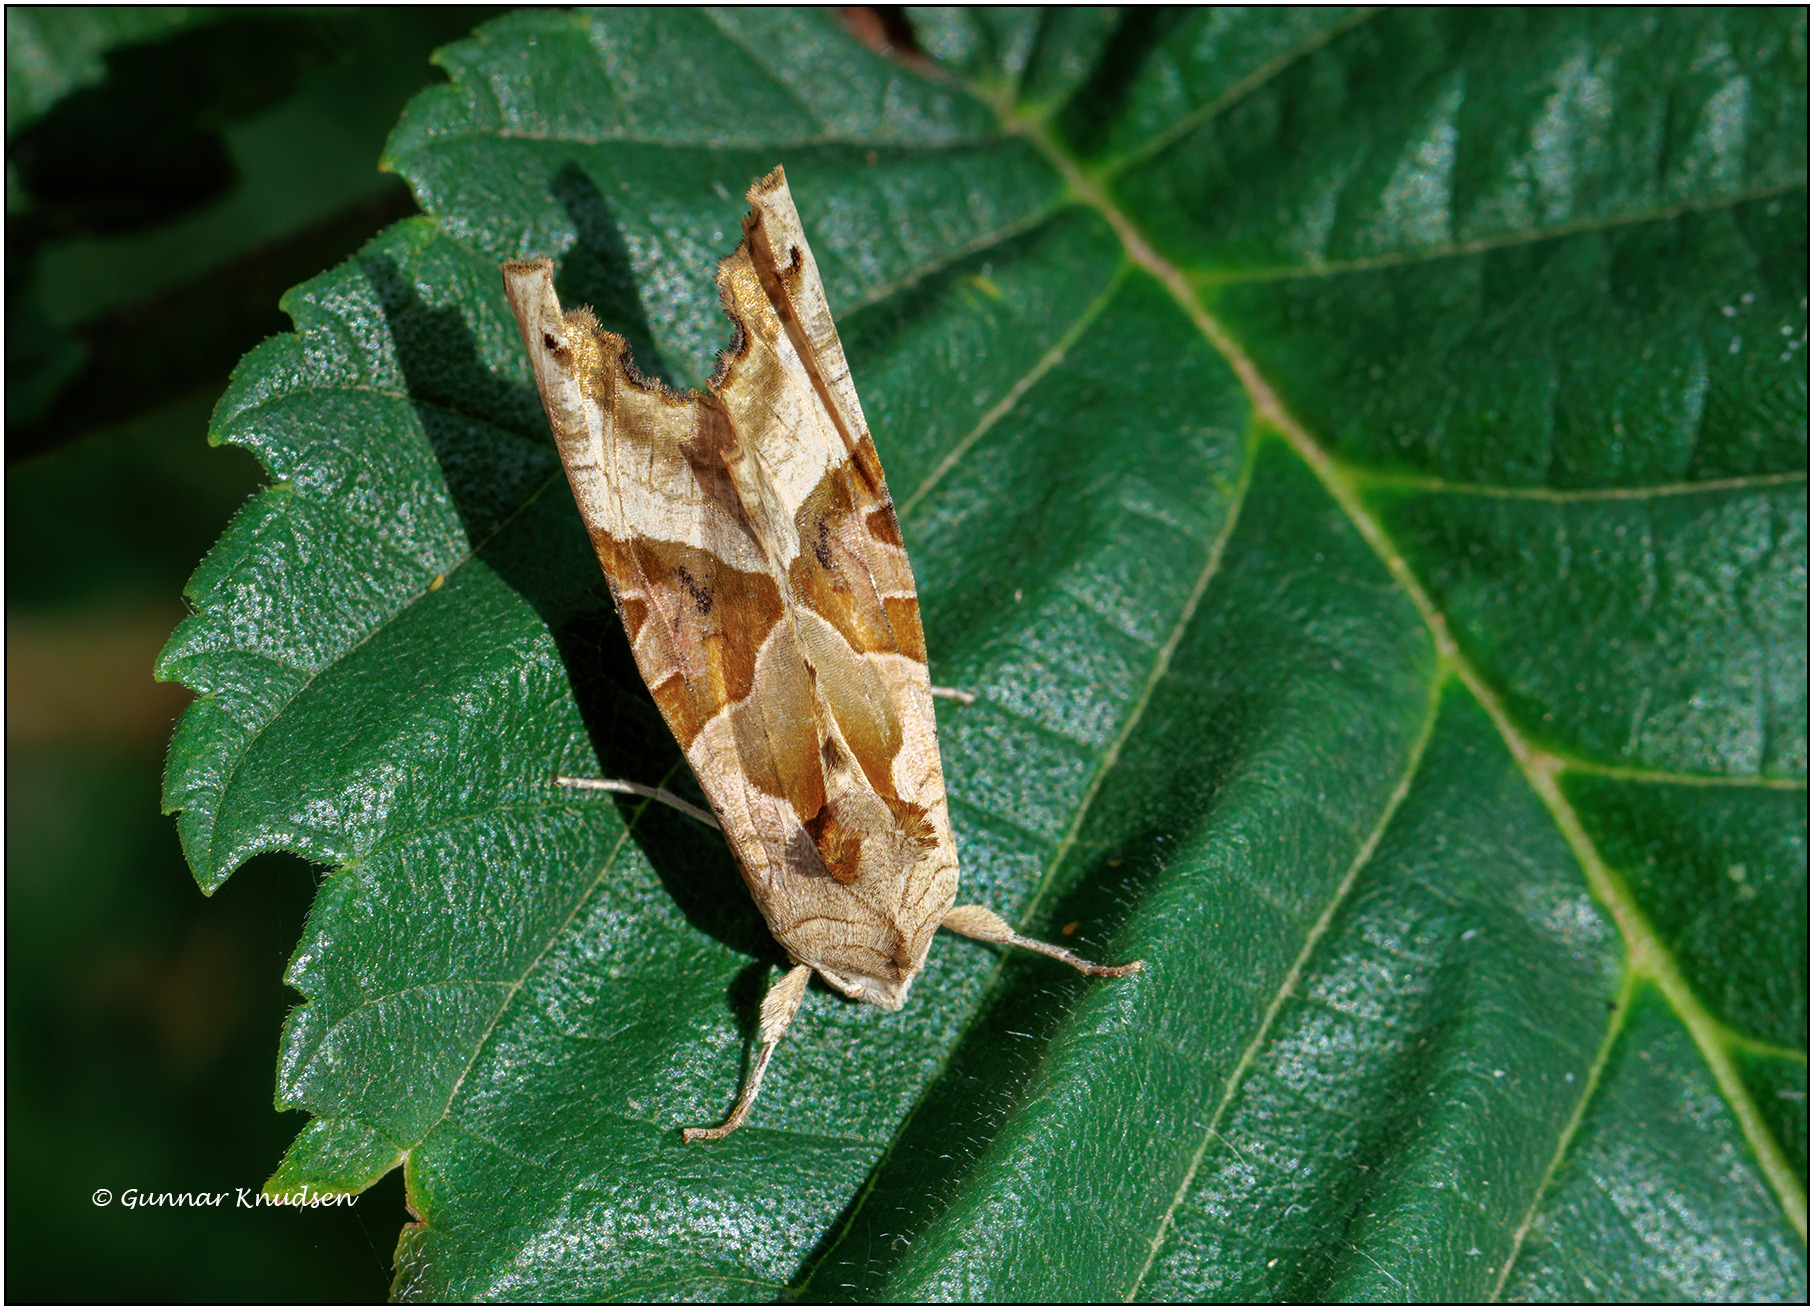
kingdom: Animalia
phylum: Arthropoda
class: Insecta
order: Lepidoptera
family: Noctuidae
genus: Phlogophora
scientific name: Phlogophora meticulosa
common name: Agatugle
